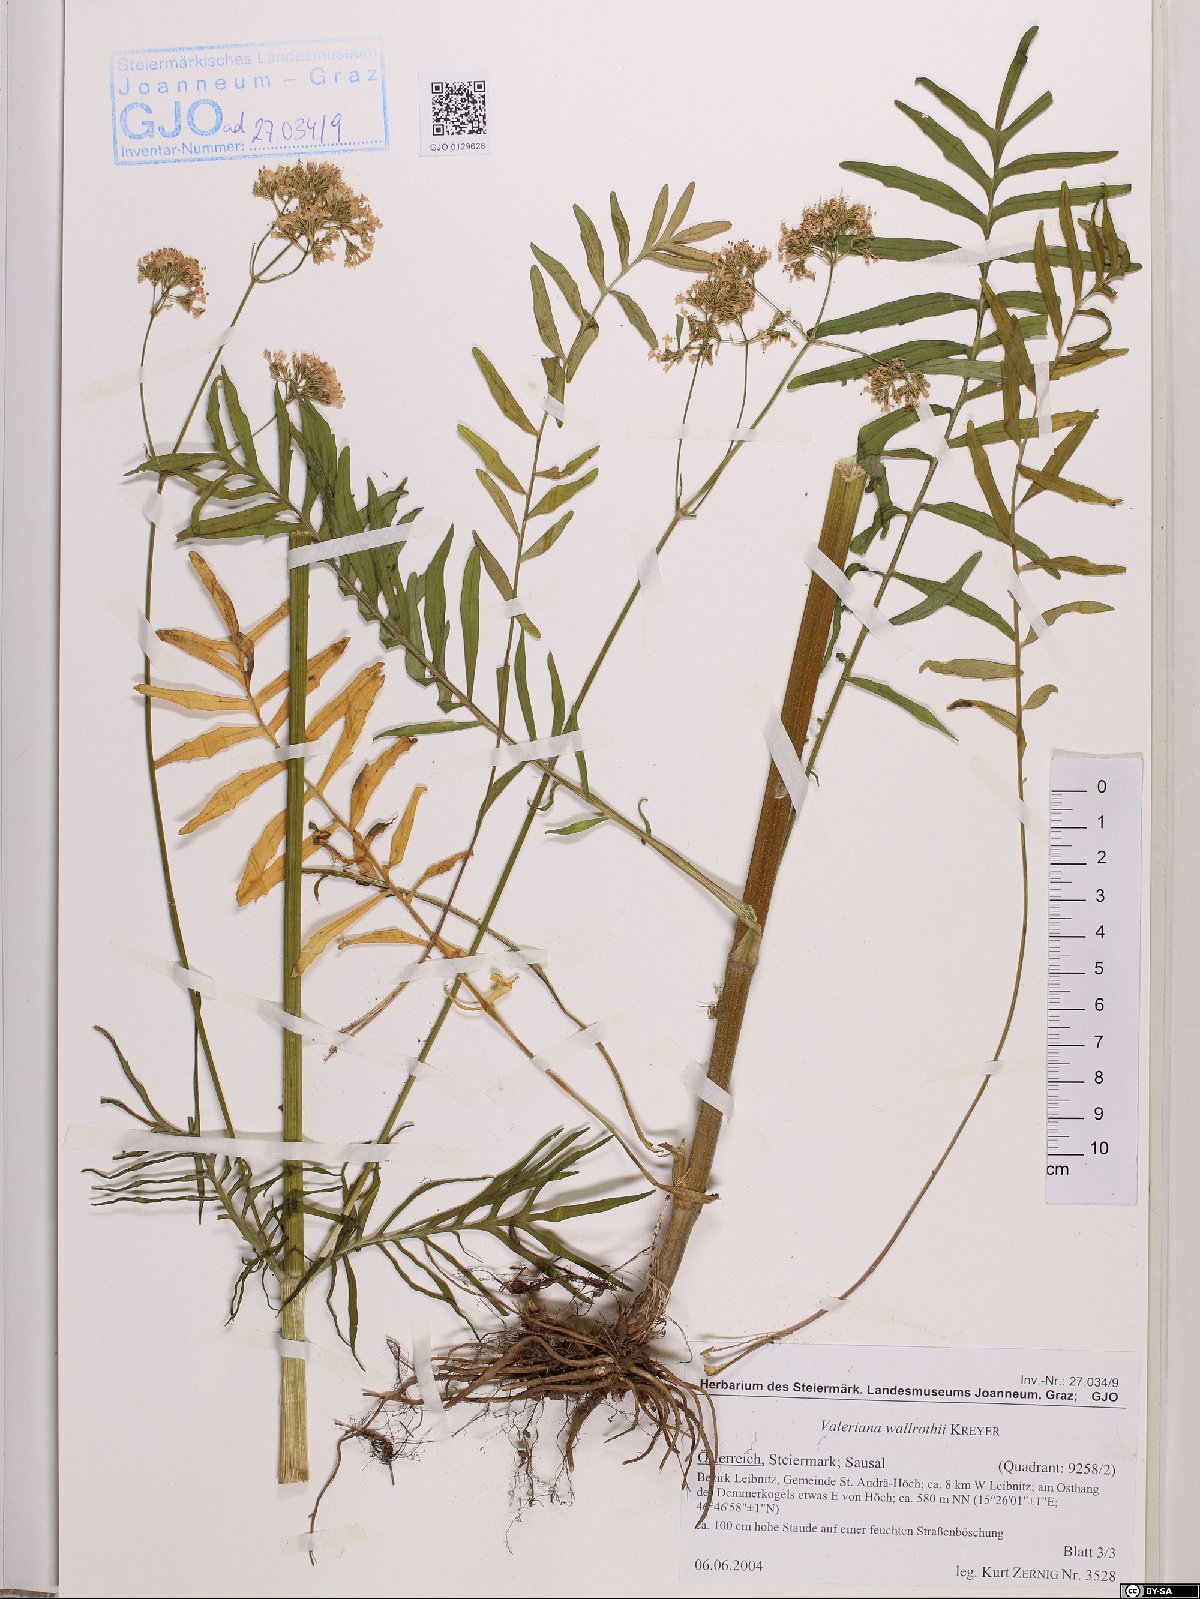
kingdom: Plantae
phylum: Tracheophyta
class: Magnoliopsida
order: Dipsacales
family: Caprifoliaceae
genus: Valeriana
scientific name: Valeriana pratensis
